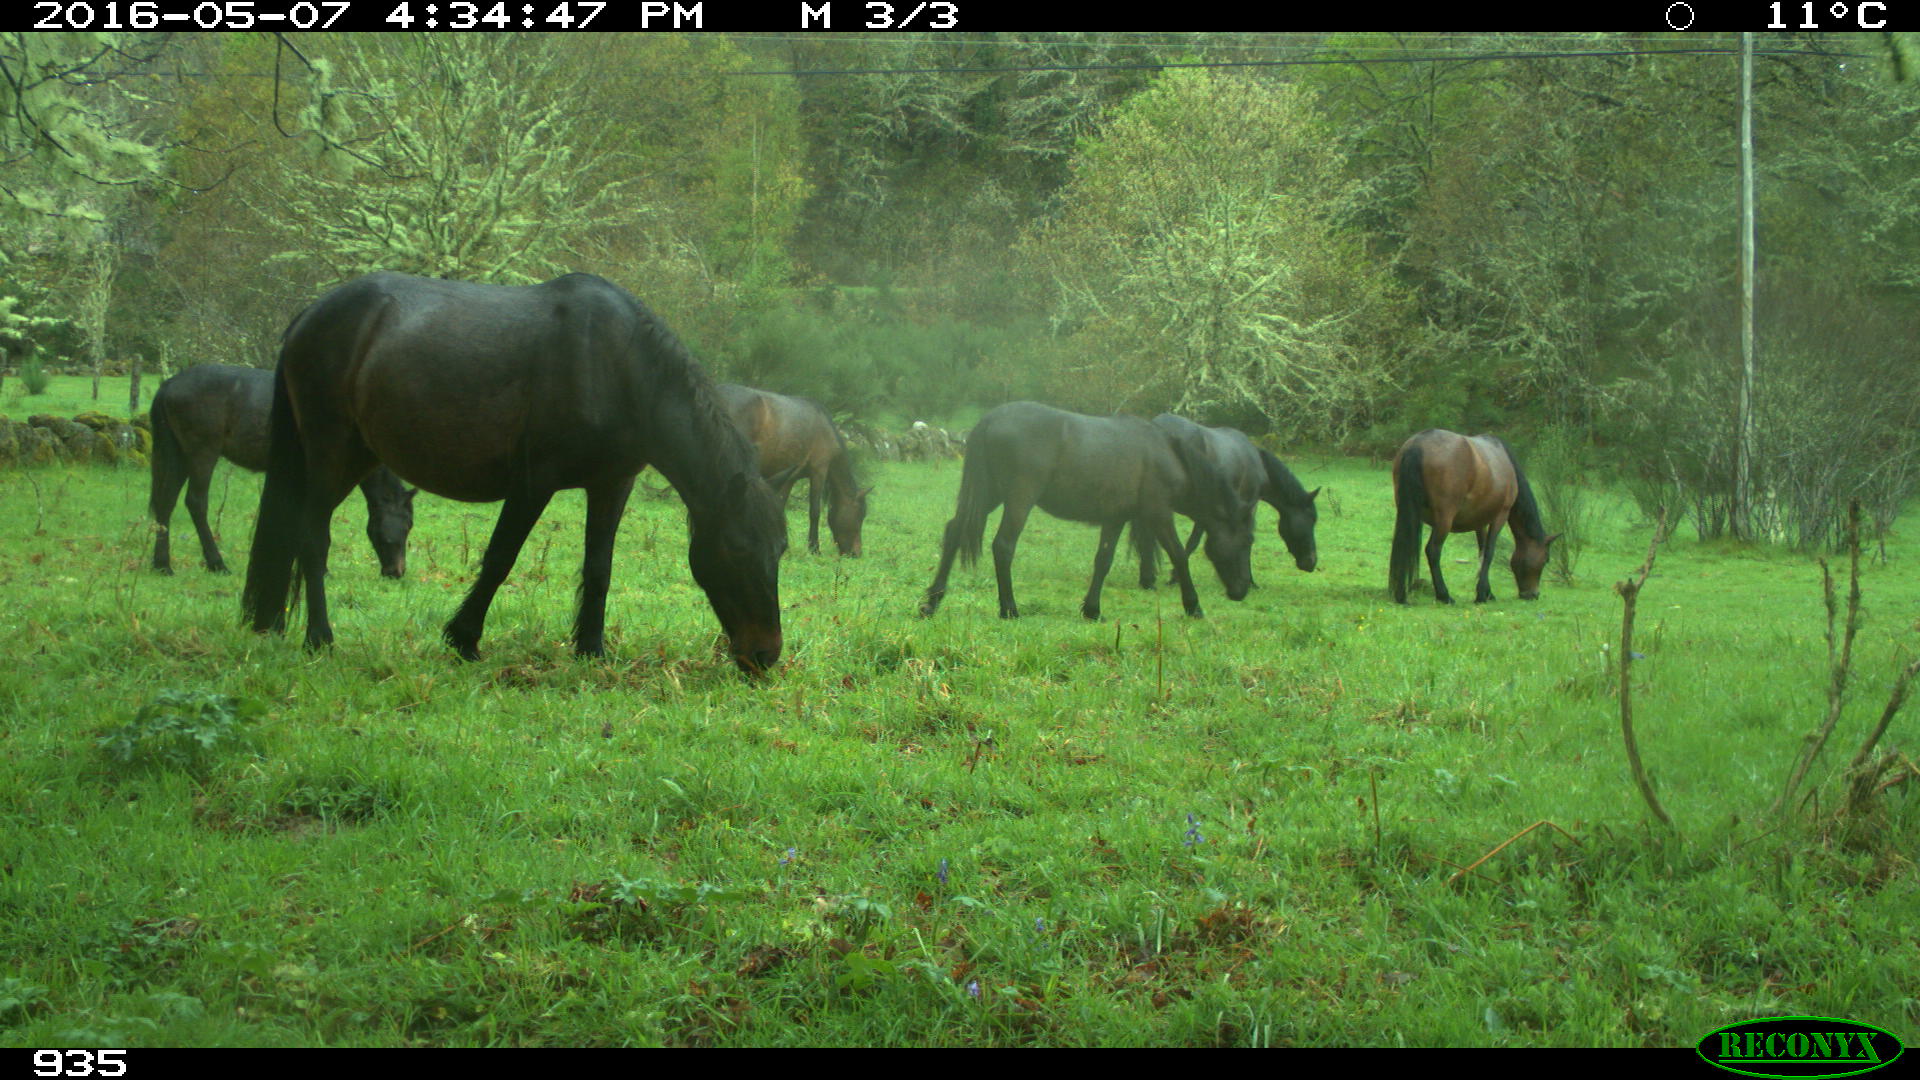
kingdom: Animalia
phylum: Chordata
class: Mammalia
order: Perissodactyla
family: Equidae
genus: Equus
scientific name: Equus caballus
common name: Horse
